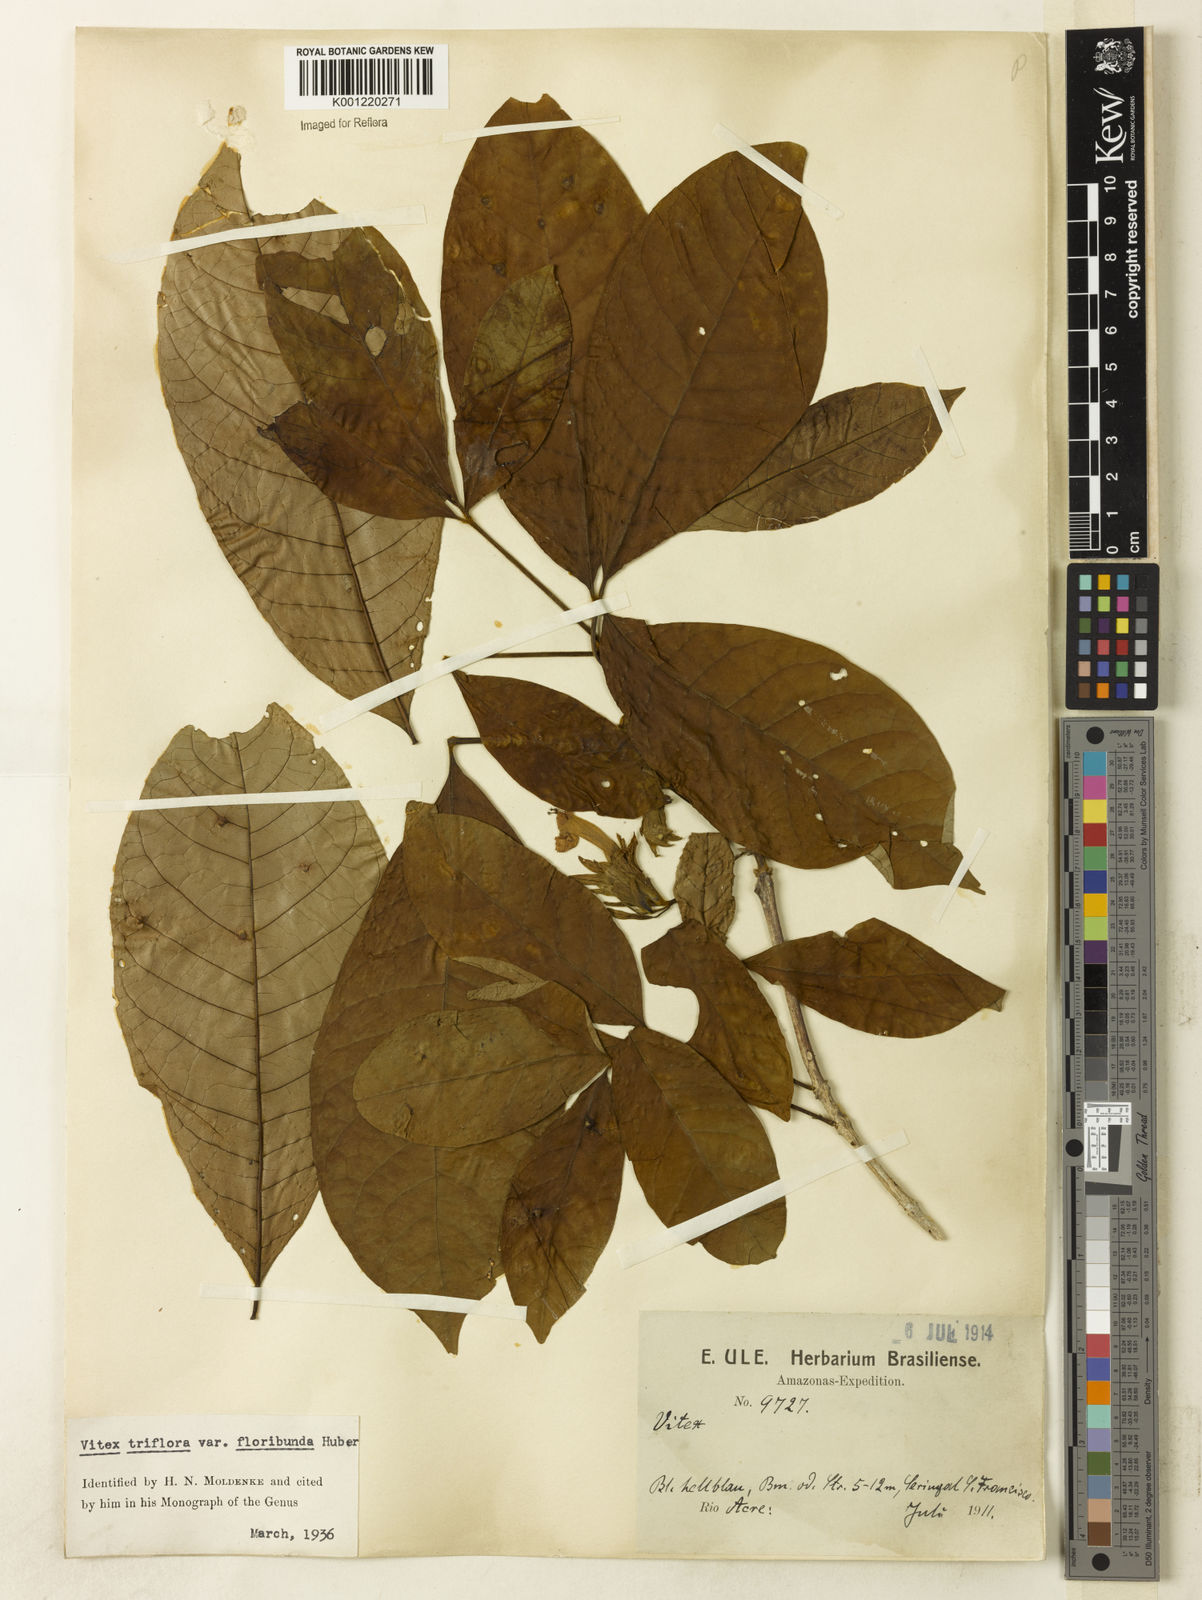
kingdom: Plantae
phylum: Tracheophyta
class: Magnoliopsida
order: Lamiales
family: Lamiaceae
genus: Vitex
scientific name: Vitex triflora
